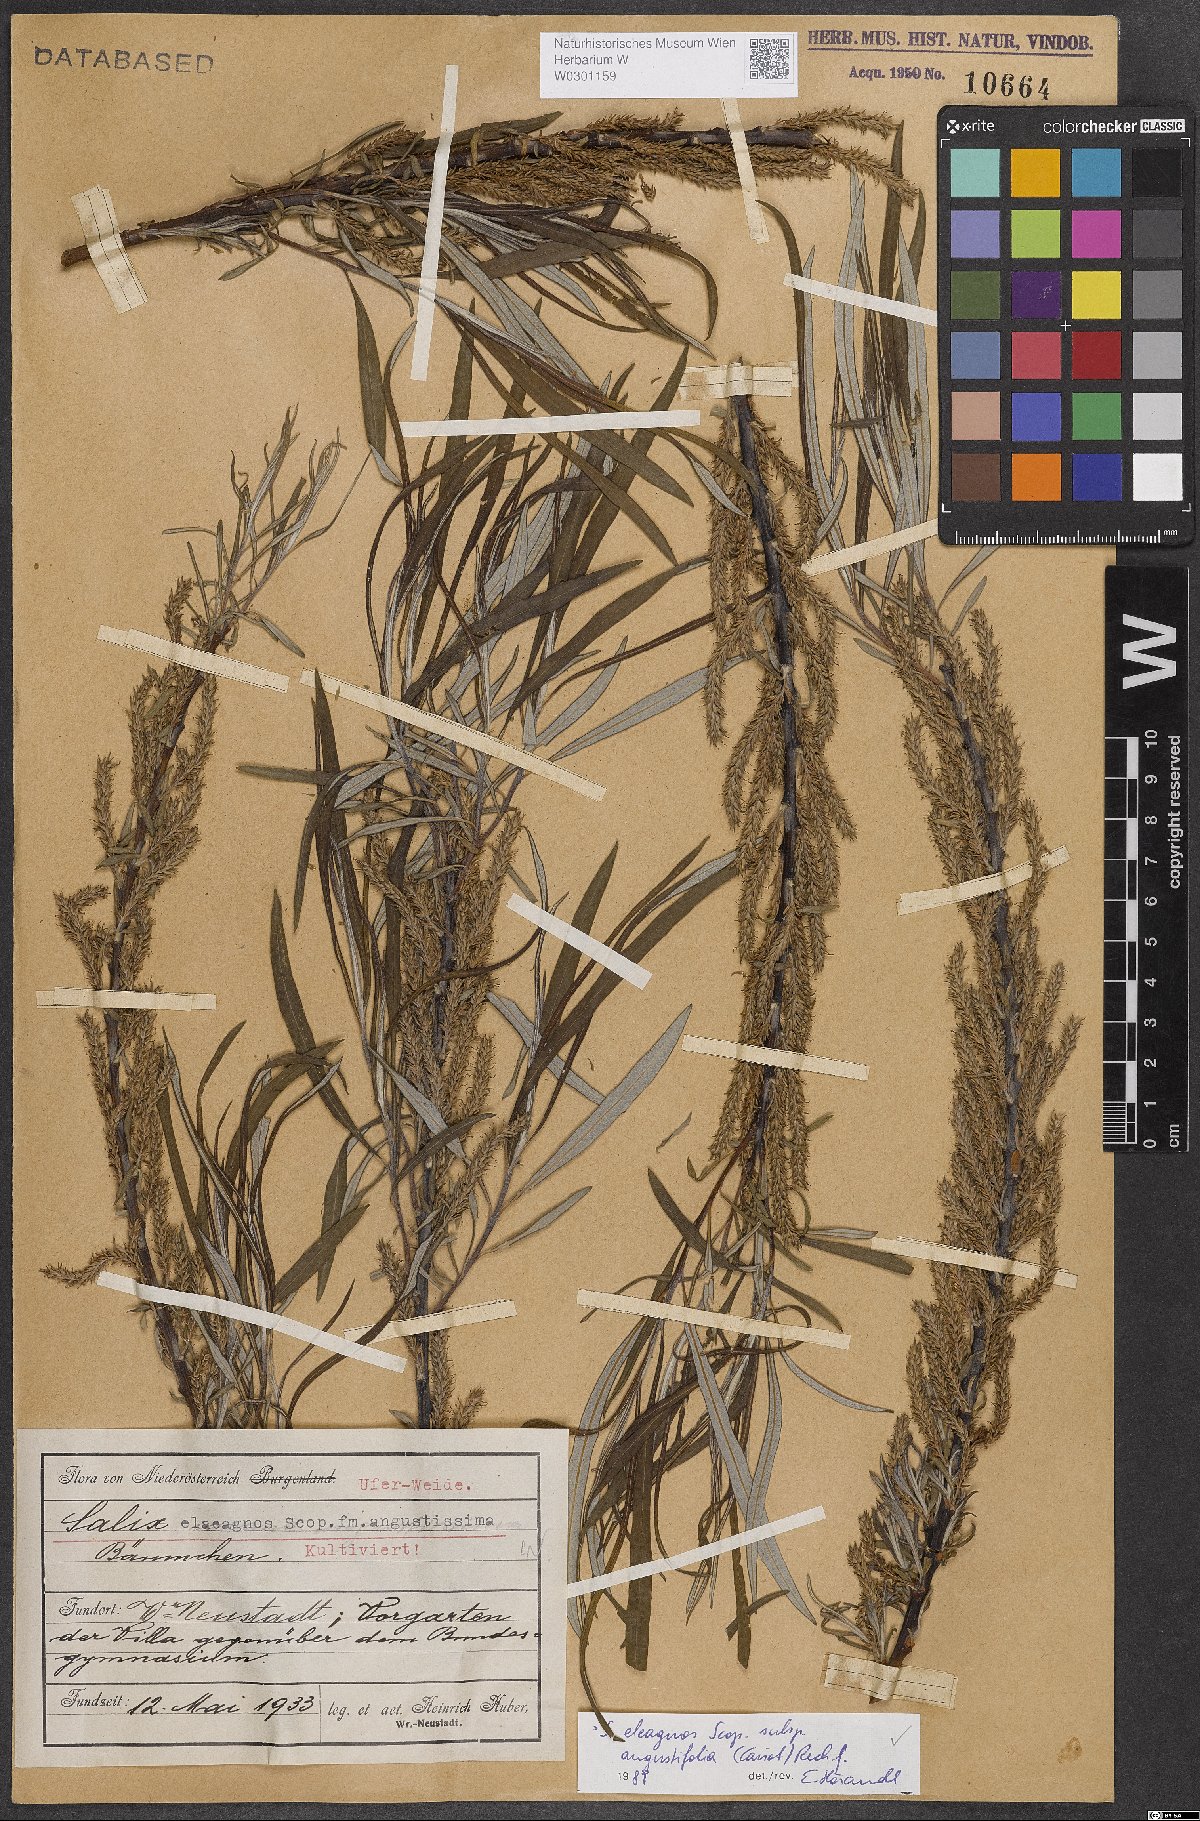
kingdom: Plantae
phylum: Tracheophyta
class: Magnoliopsida
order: Malpighiales
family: Salicaceae
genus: Salix
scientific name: Salix eleagnos
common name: Elaeagnus willow
